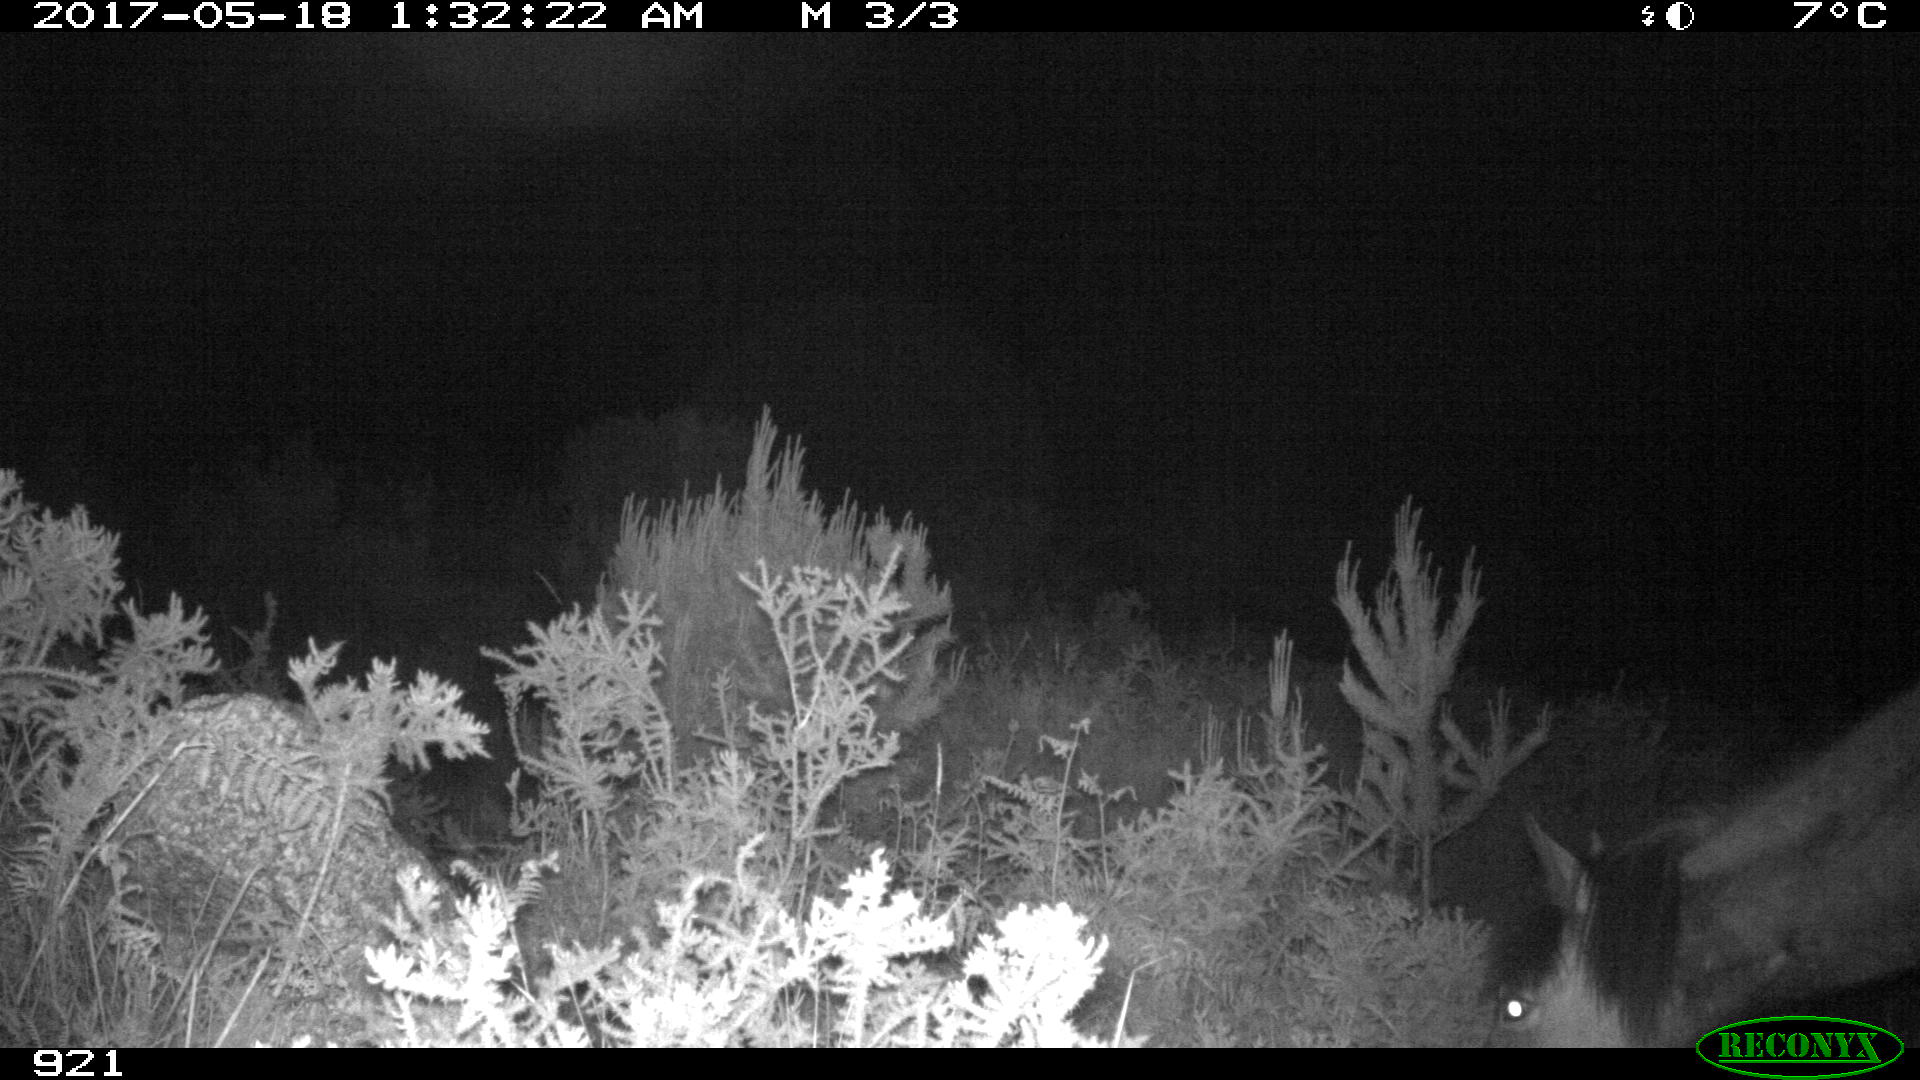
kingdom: Animalia
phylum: Chordata
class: Mammalia
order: Perissodactyla
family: Equidae
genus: Equus
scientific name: Equus caballus
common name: Horse
